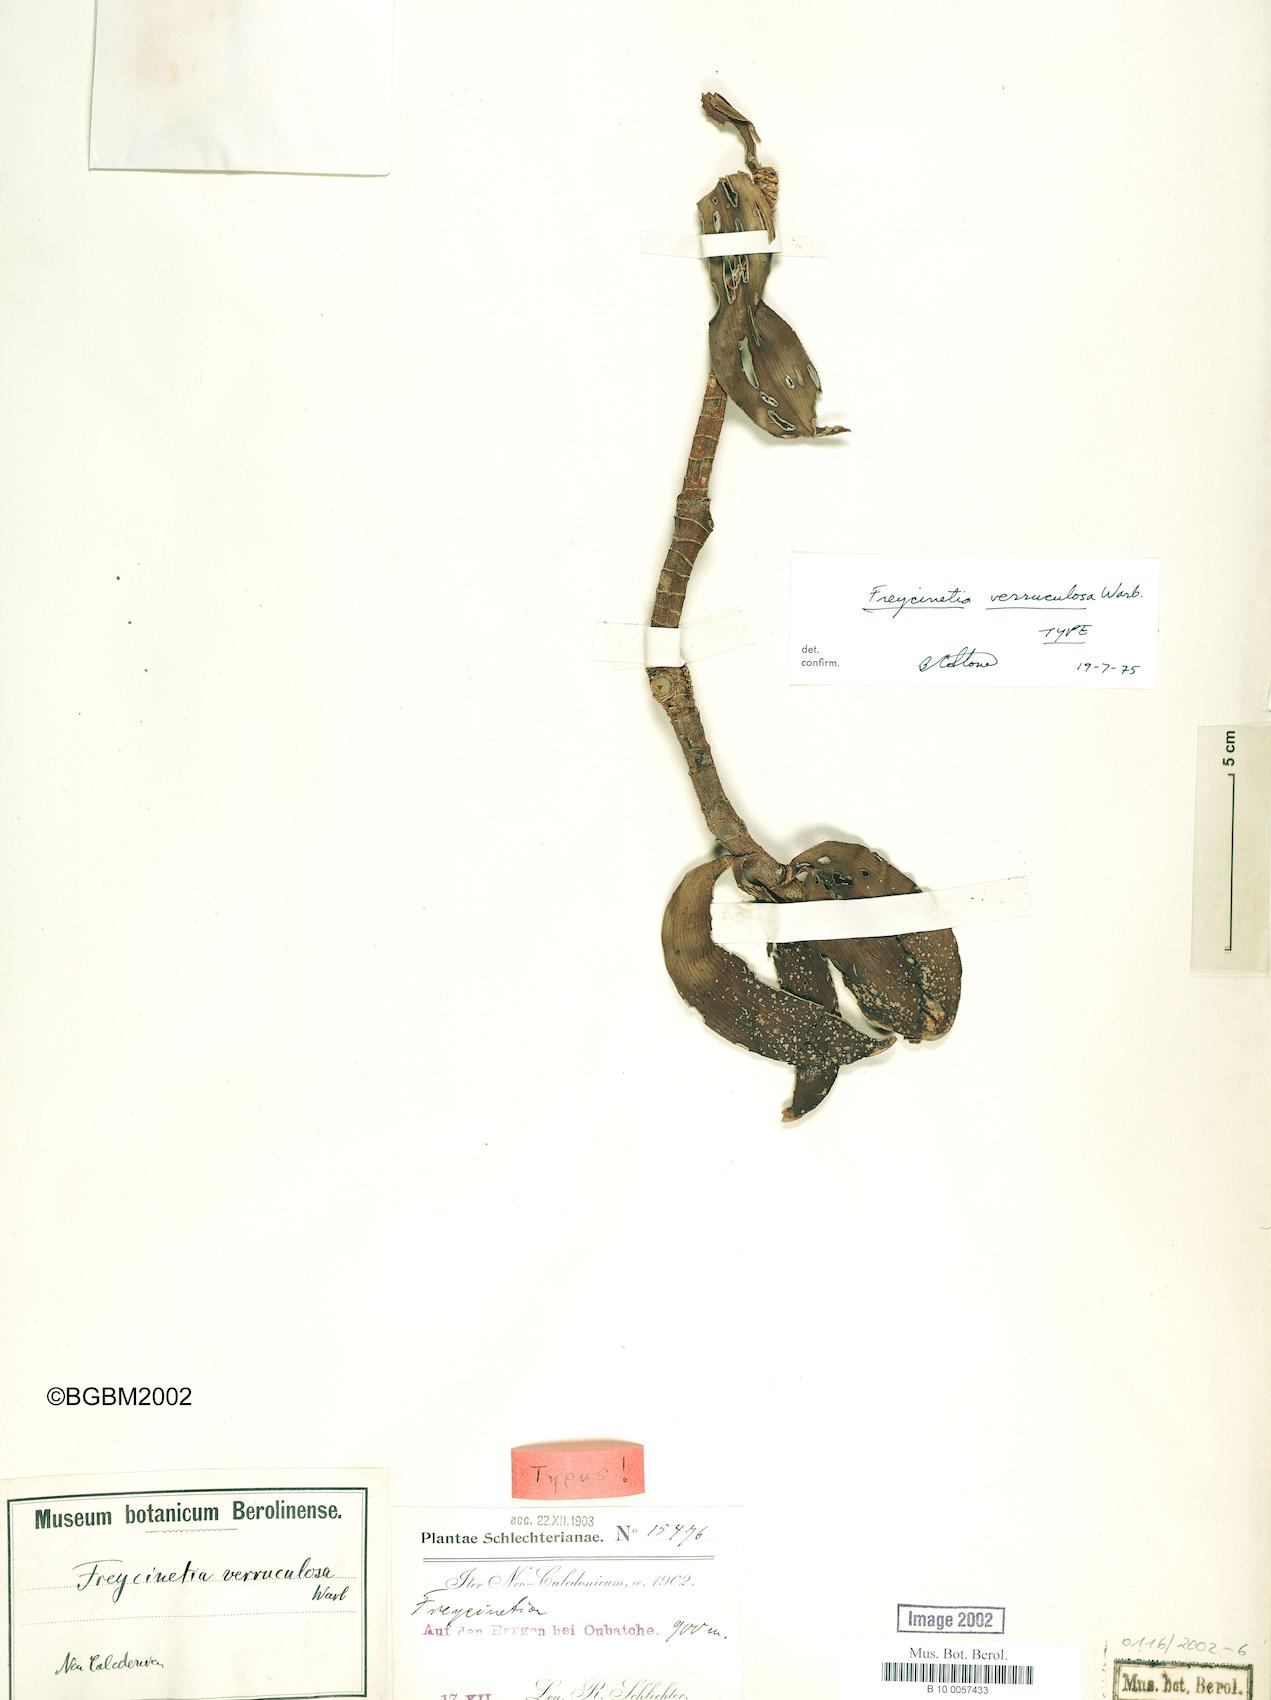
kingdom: Plantae
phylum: Tracheophyta
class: Liliopsida
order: Pandanales
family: Pandanaceae
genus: Freycinetia
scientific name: Freycinetia verruculosa
